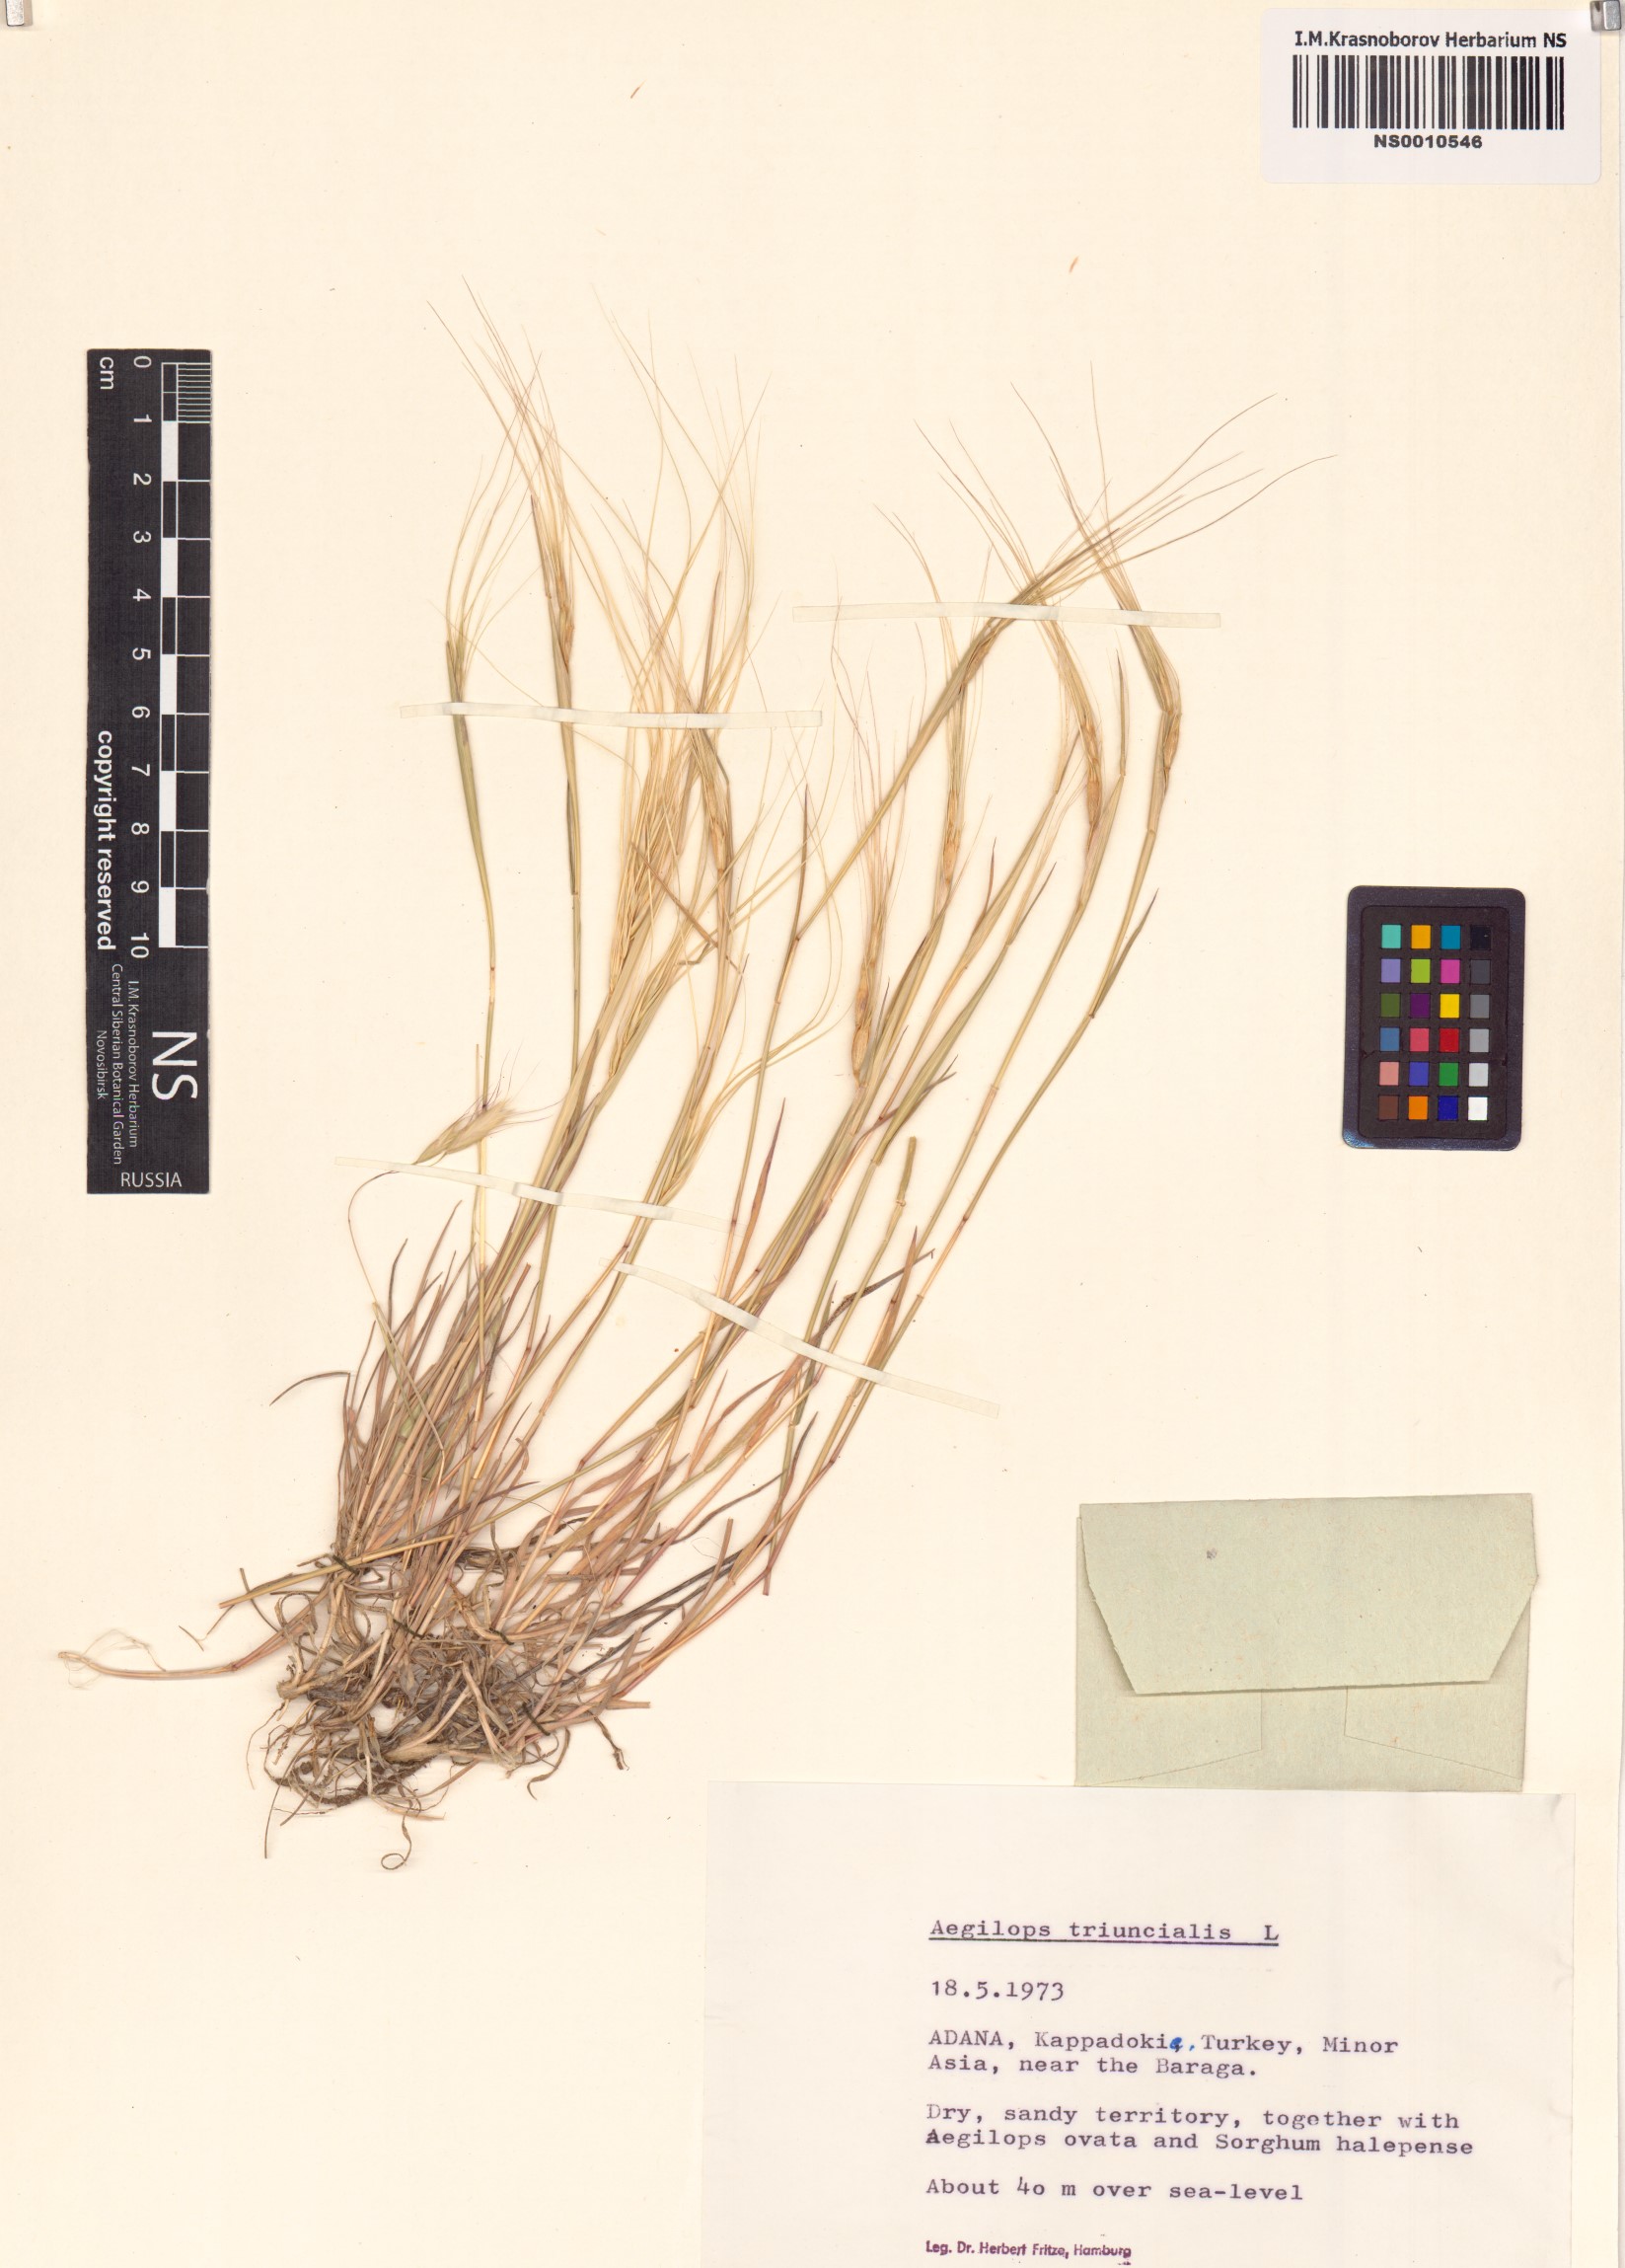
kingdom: Plantae
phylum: Tracheophyta
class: Liliopsida
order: Poales
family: Poaceae
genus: Aegilops
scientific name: Aegilops triuncialis
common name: Barb goat grass
